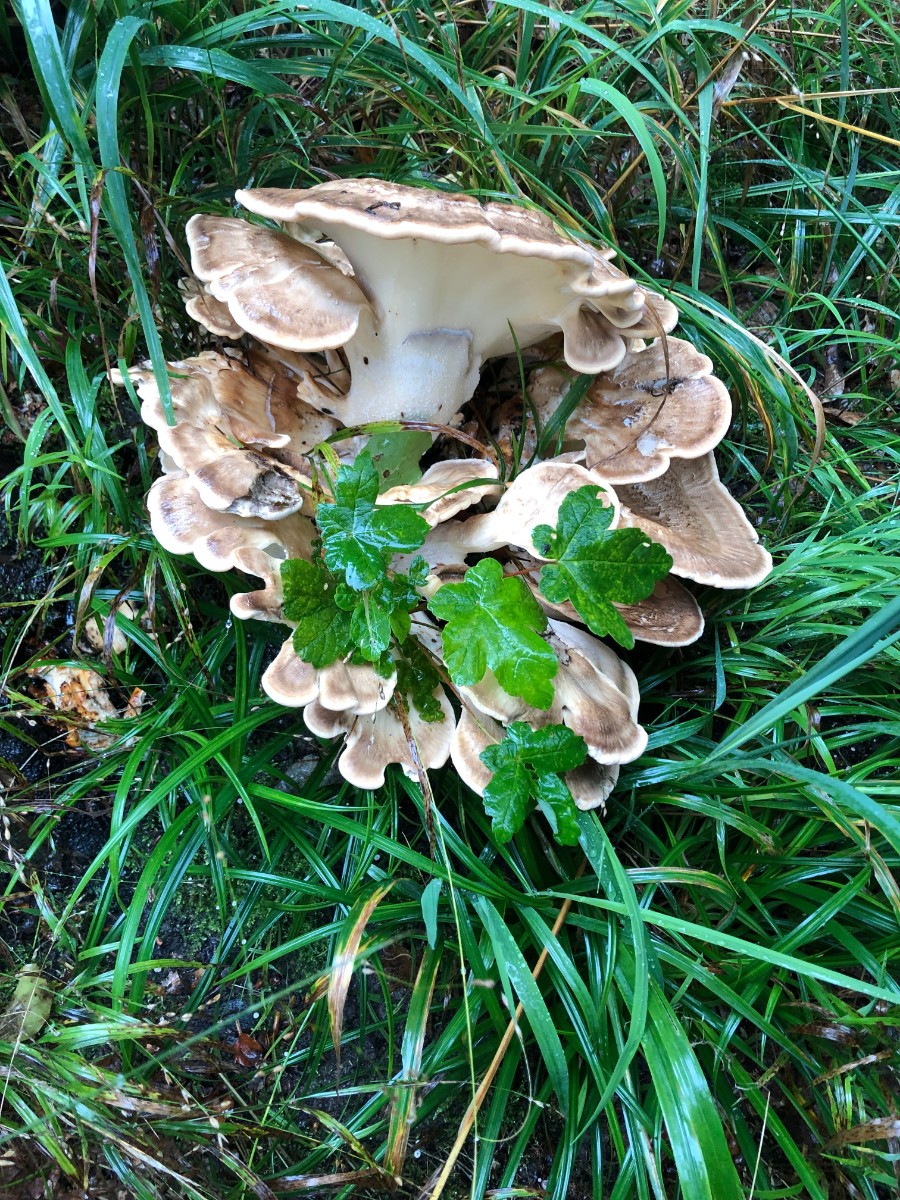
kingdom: Fungi
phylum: Basidiomycota
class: Agaricomycetes
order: Polyporales
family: Meripilaceae
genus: Meripilus
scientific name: Meripilus giganteus
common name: kæmpeporesvamp
